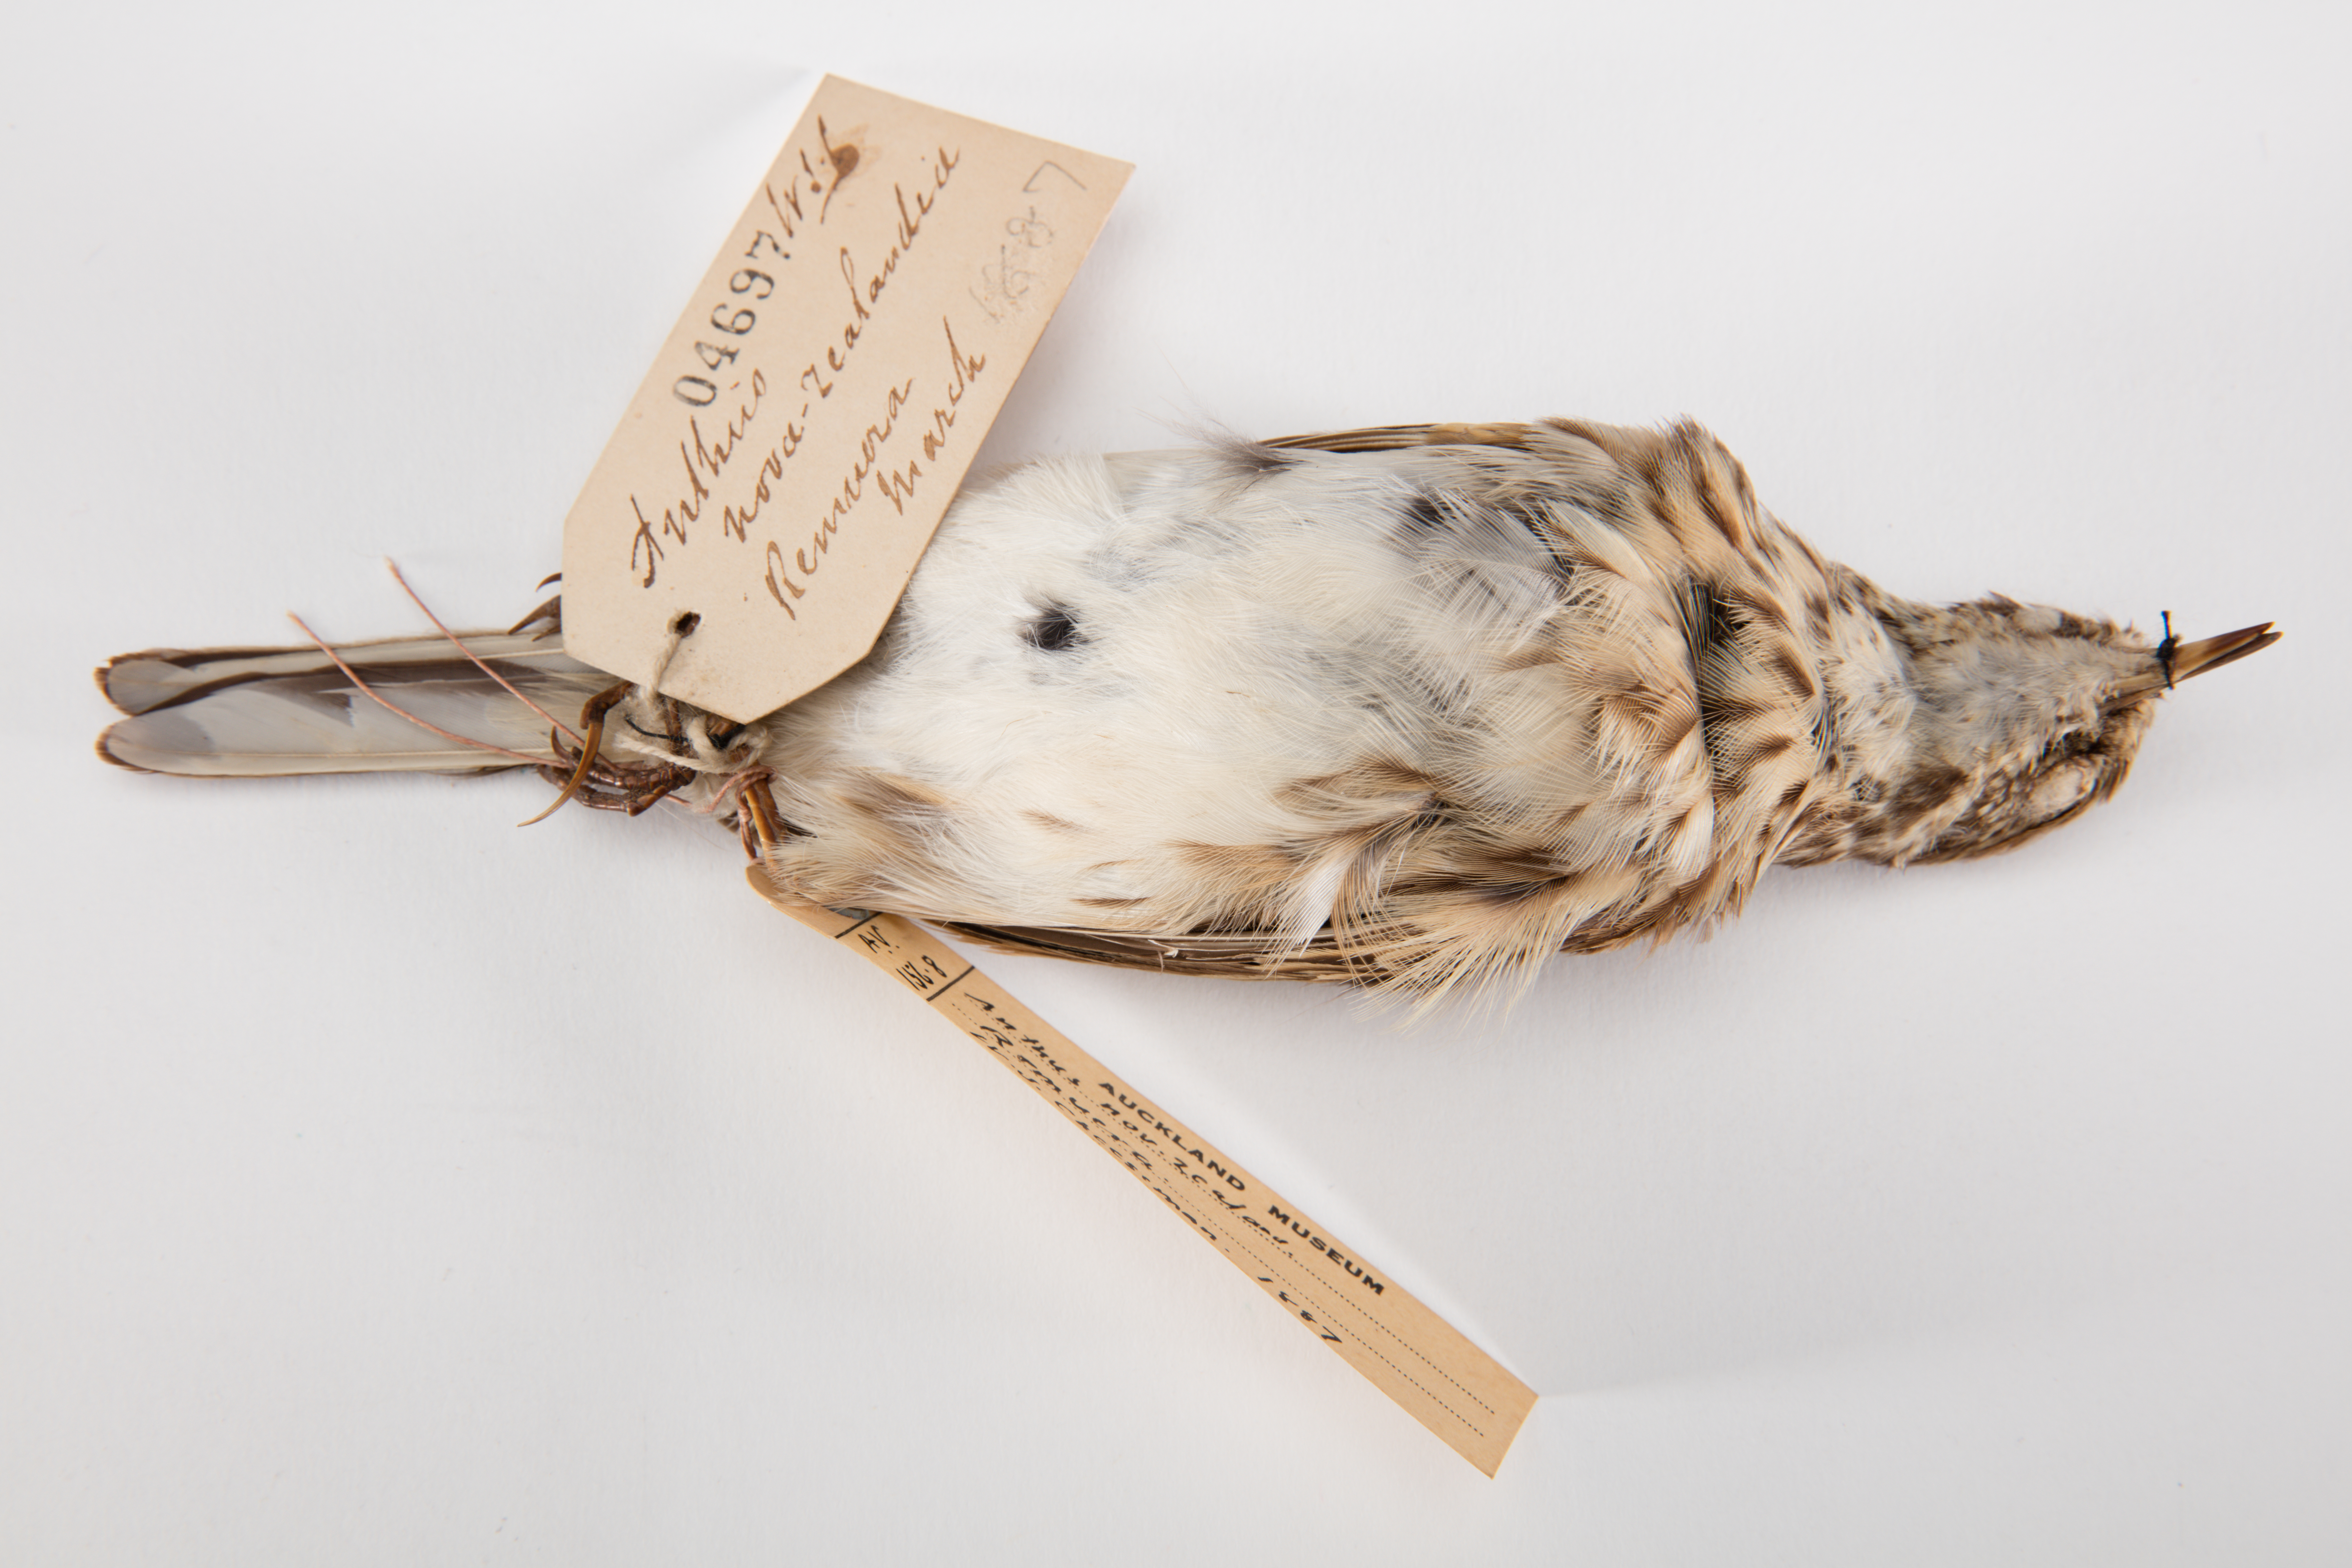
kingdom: Animalia
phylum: Chordata
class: Aves
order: Passeriformes
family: Motacillidae
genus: Anthus
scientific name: Anthus novaeseelandiae
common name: New zealand pipit
